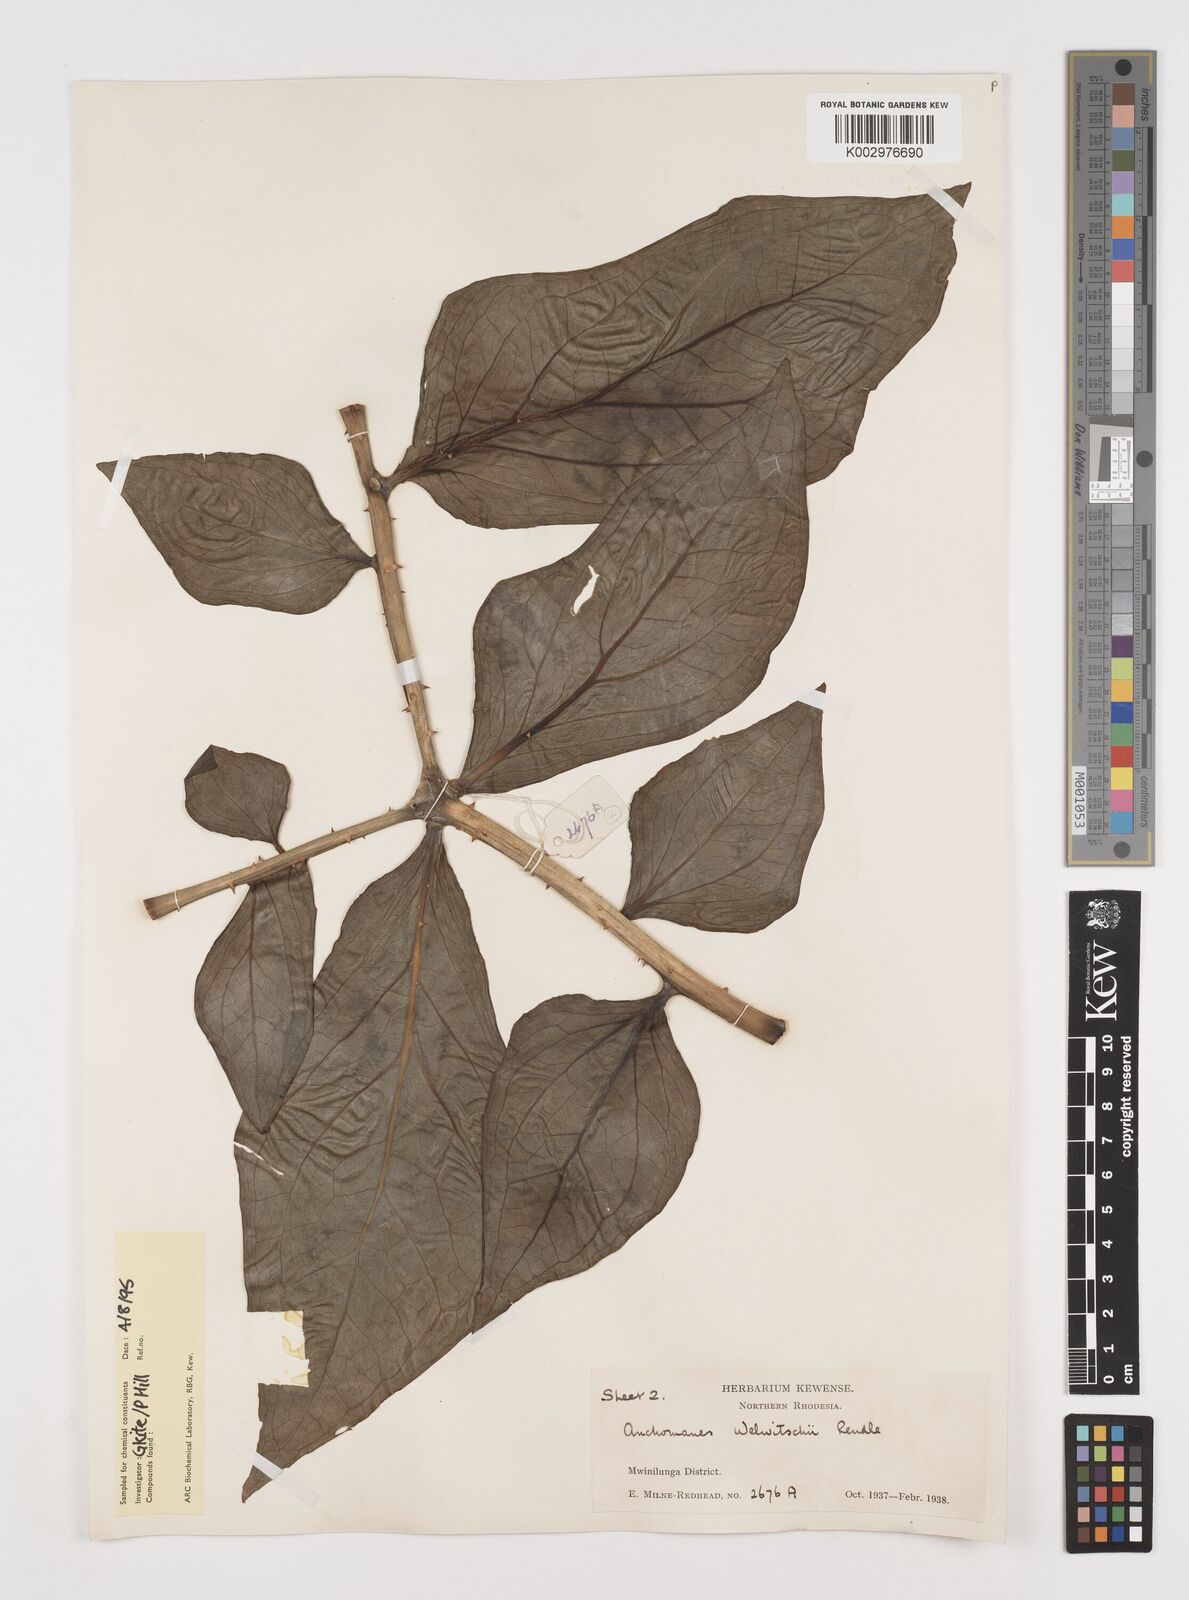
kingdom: Plantae
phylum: Tracheophyta
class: Liliopsida
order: Alismatales
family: Araceae
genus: Anchomanes
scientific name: Anchomanes difformis
